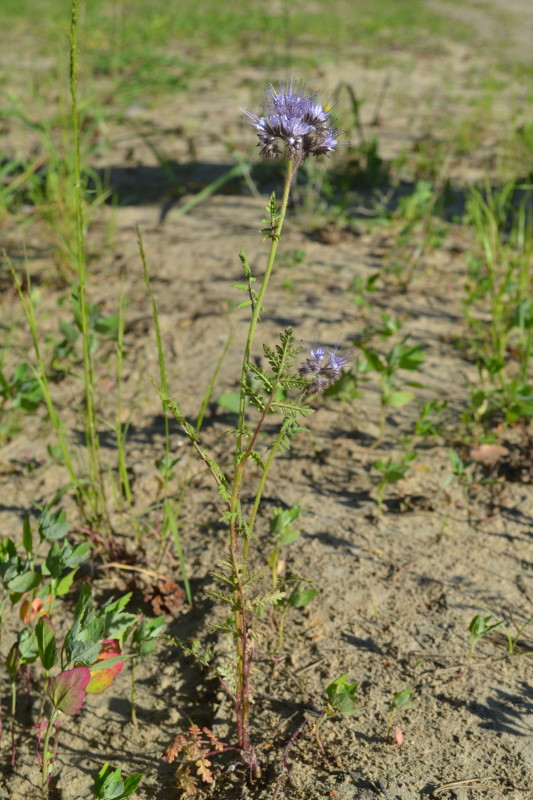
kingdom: Plantae
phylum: Tracheophyta
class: Magnoliopsida
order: Boraginales
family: Hydrophyllaceae
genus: Phacelia
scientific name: Phacelia tanacetifolia
